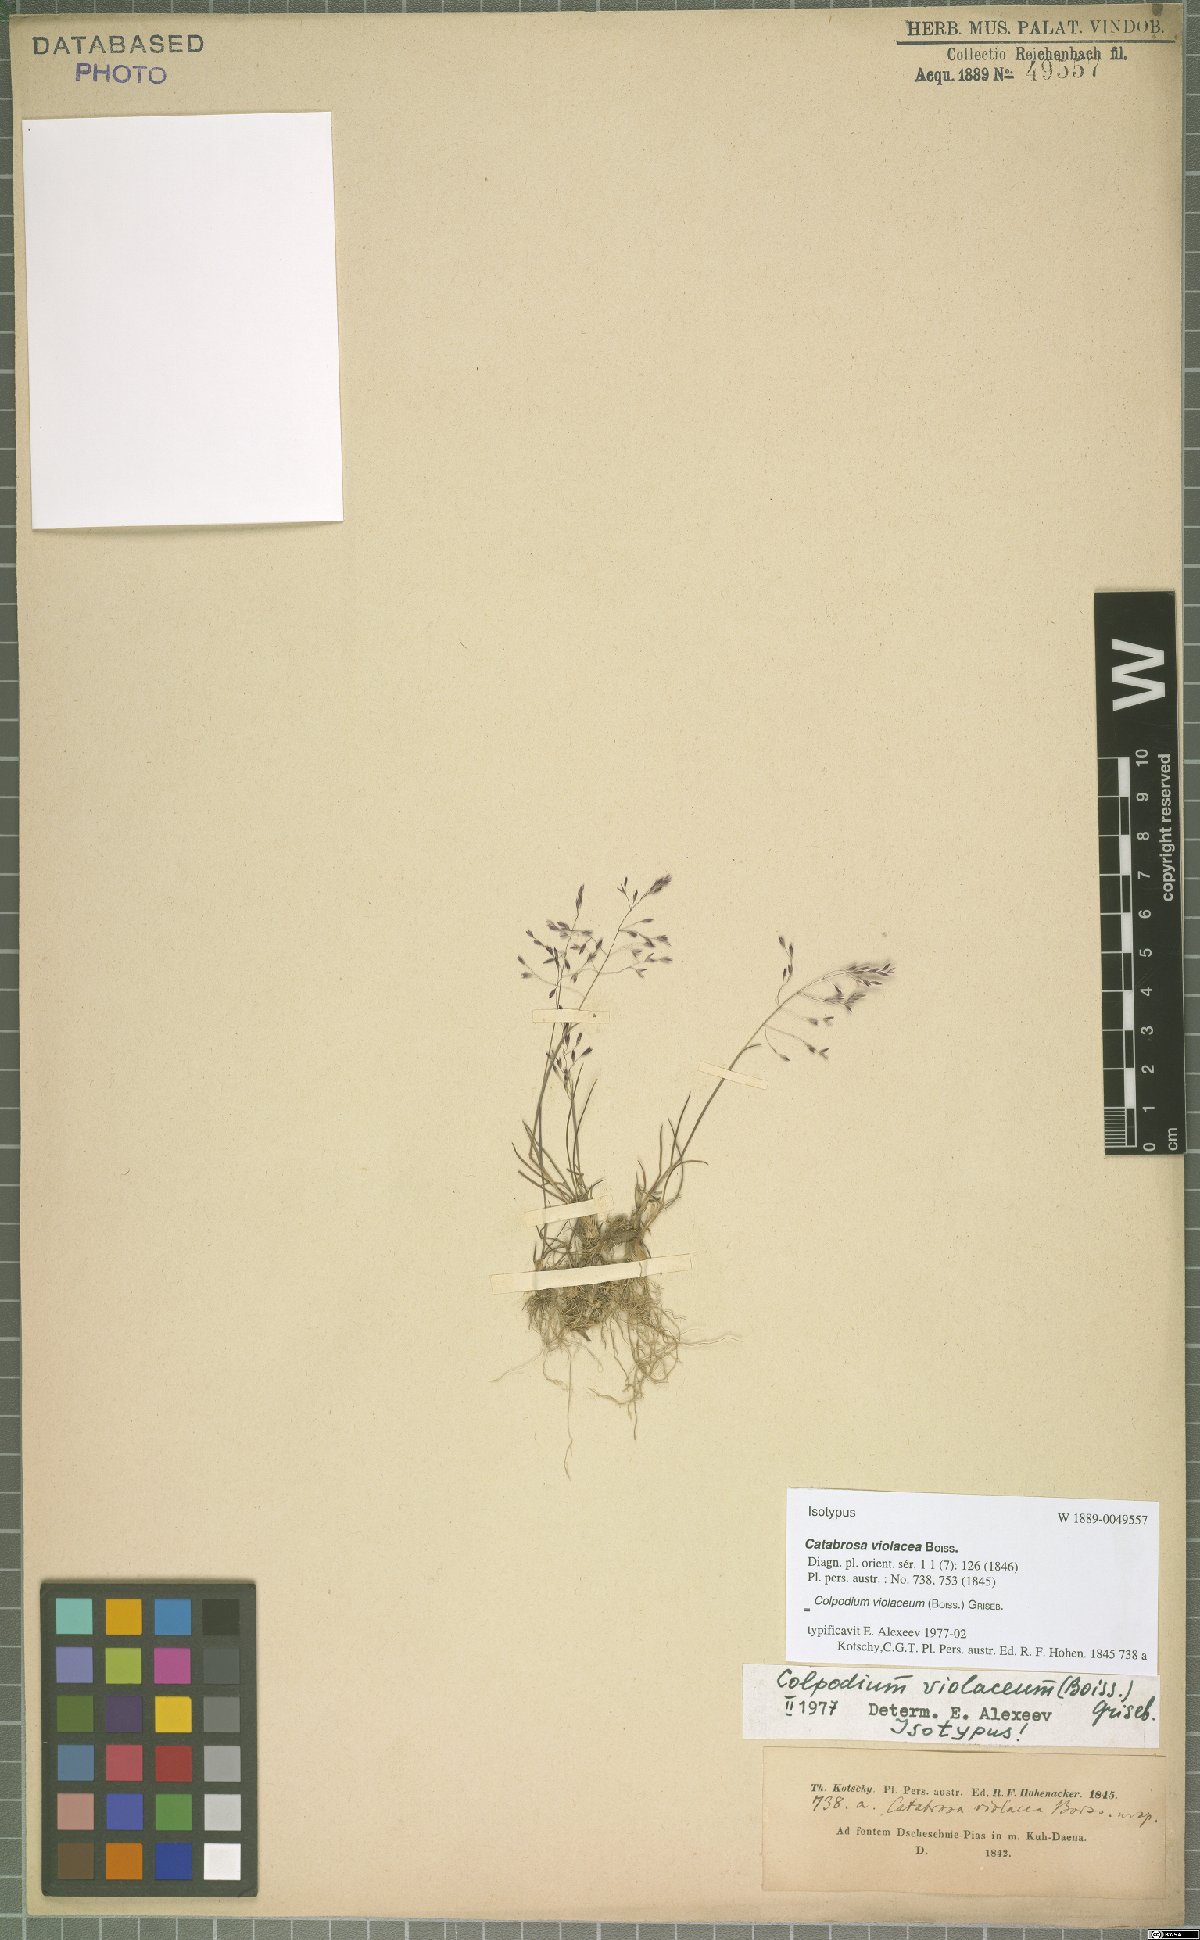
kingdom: Plantae
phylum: Tracheophyta
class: Liliopsida
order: Poales
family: Poaceae
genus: Catabrosella
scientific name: Catabrosella violacea
